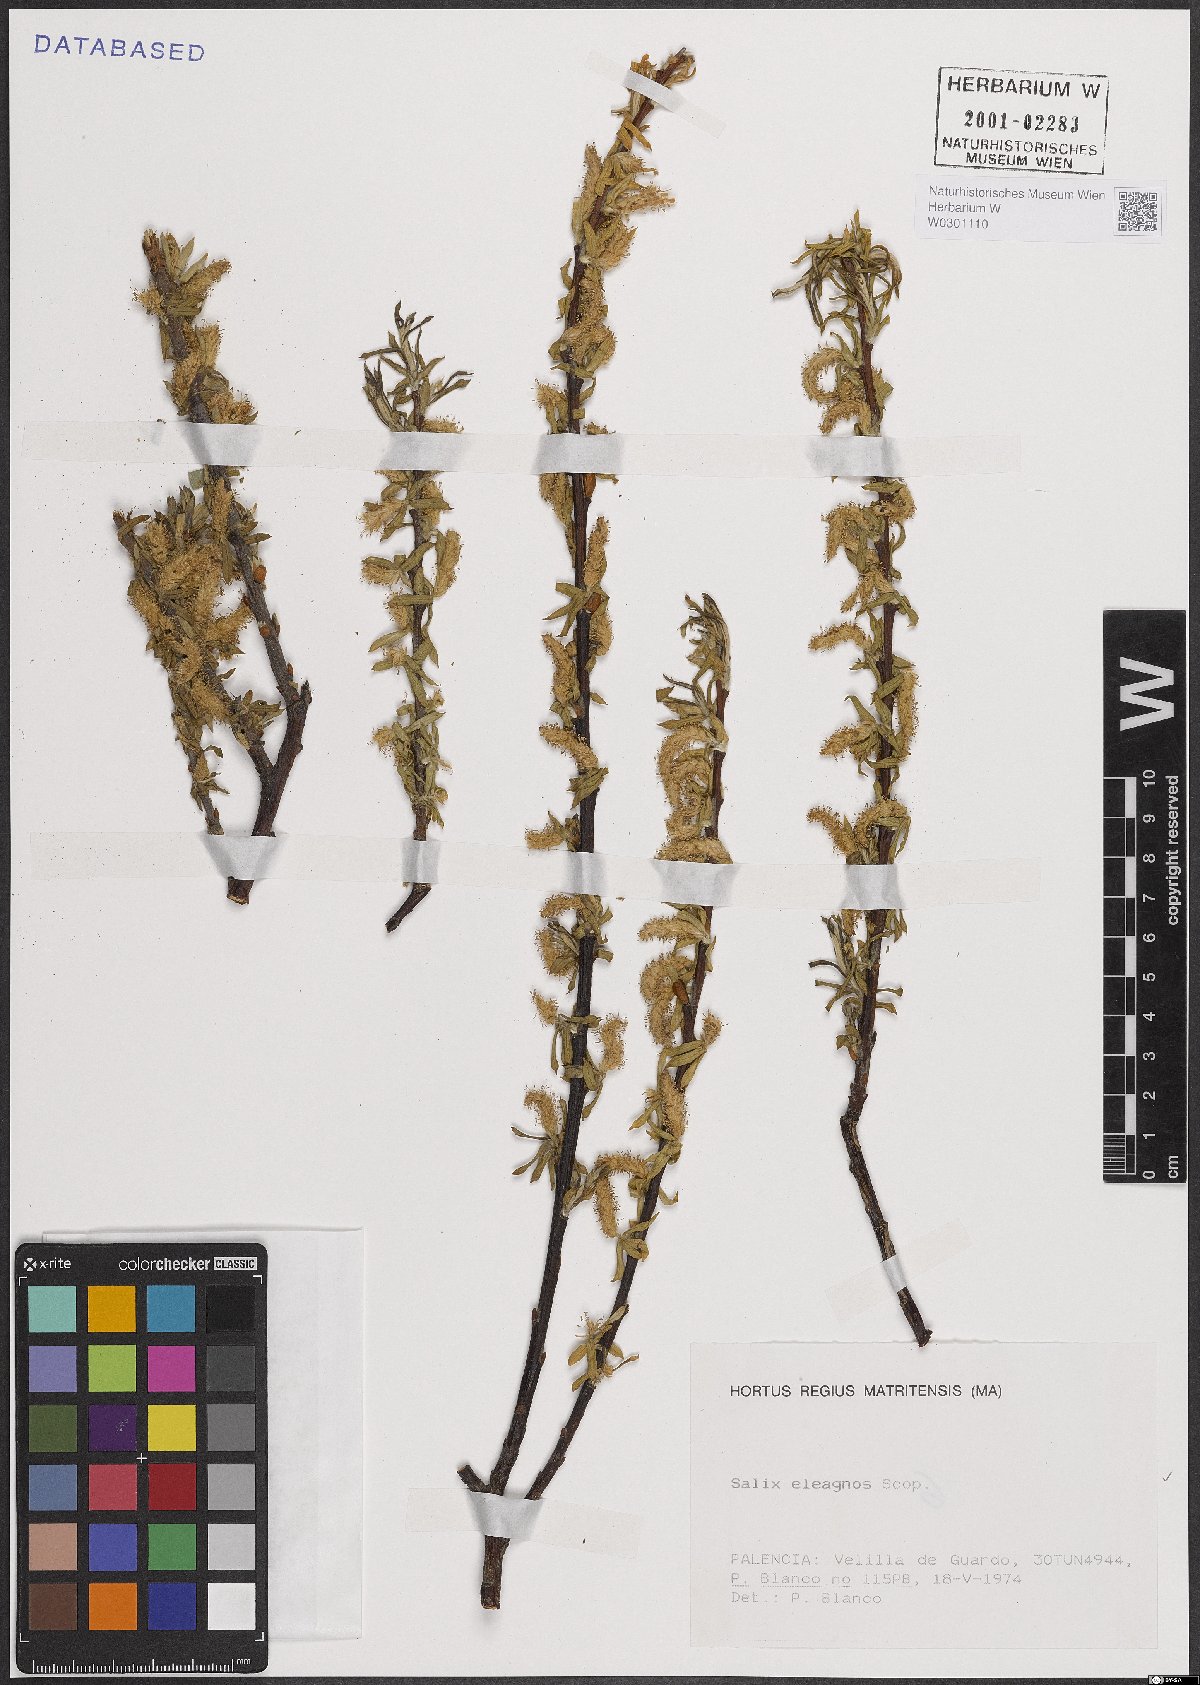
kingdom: Plantae
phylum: Tracheophyta
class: Magnoliopsida
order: Malpighiales
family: Salicaceae
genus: Salix
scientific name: Salix eleagnos
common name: Elaeagnus willow
